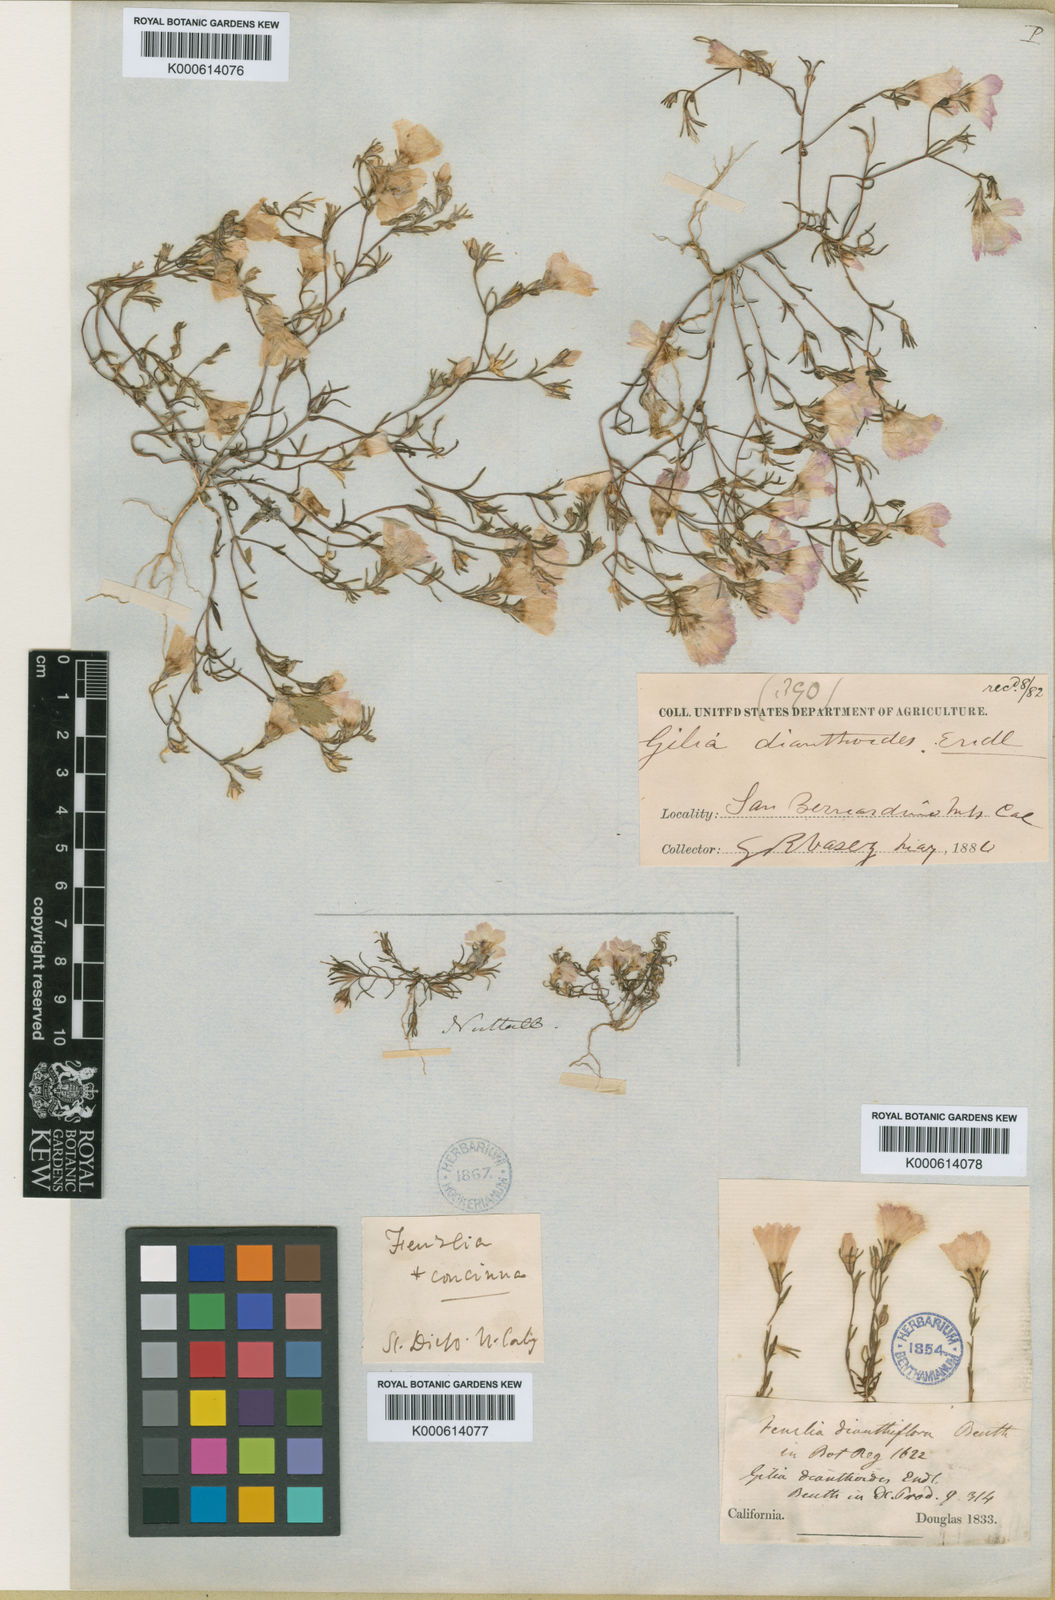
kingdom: Plantae
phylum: Tracheophyta
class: Magnoliopsida
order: Ericales
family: Polemoniaceae
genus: Linanthus
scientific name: Linanthus dianthiflorus
